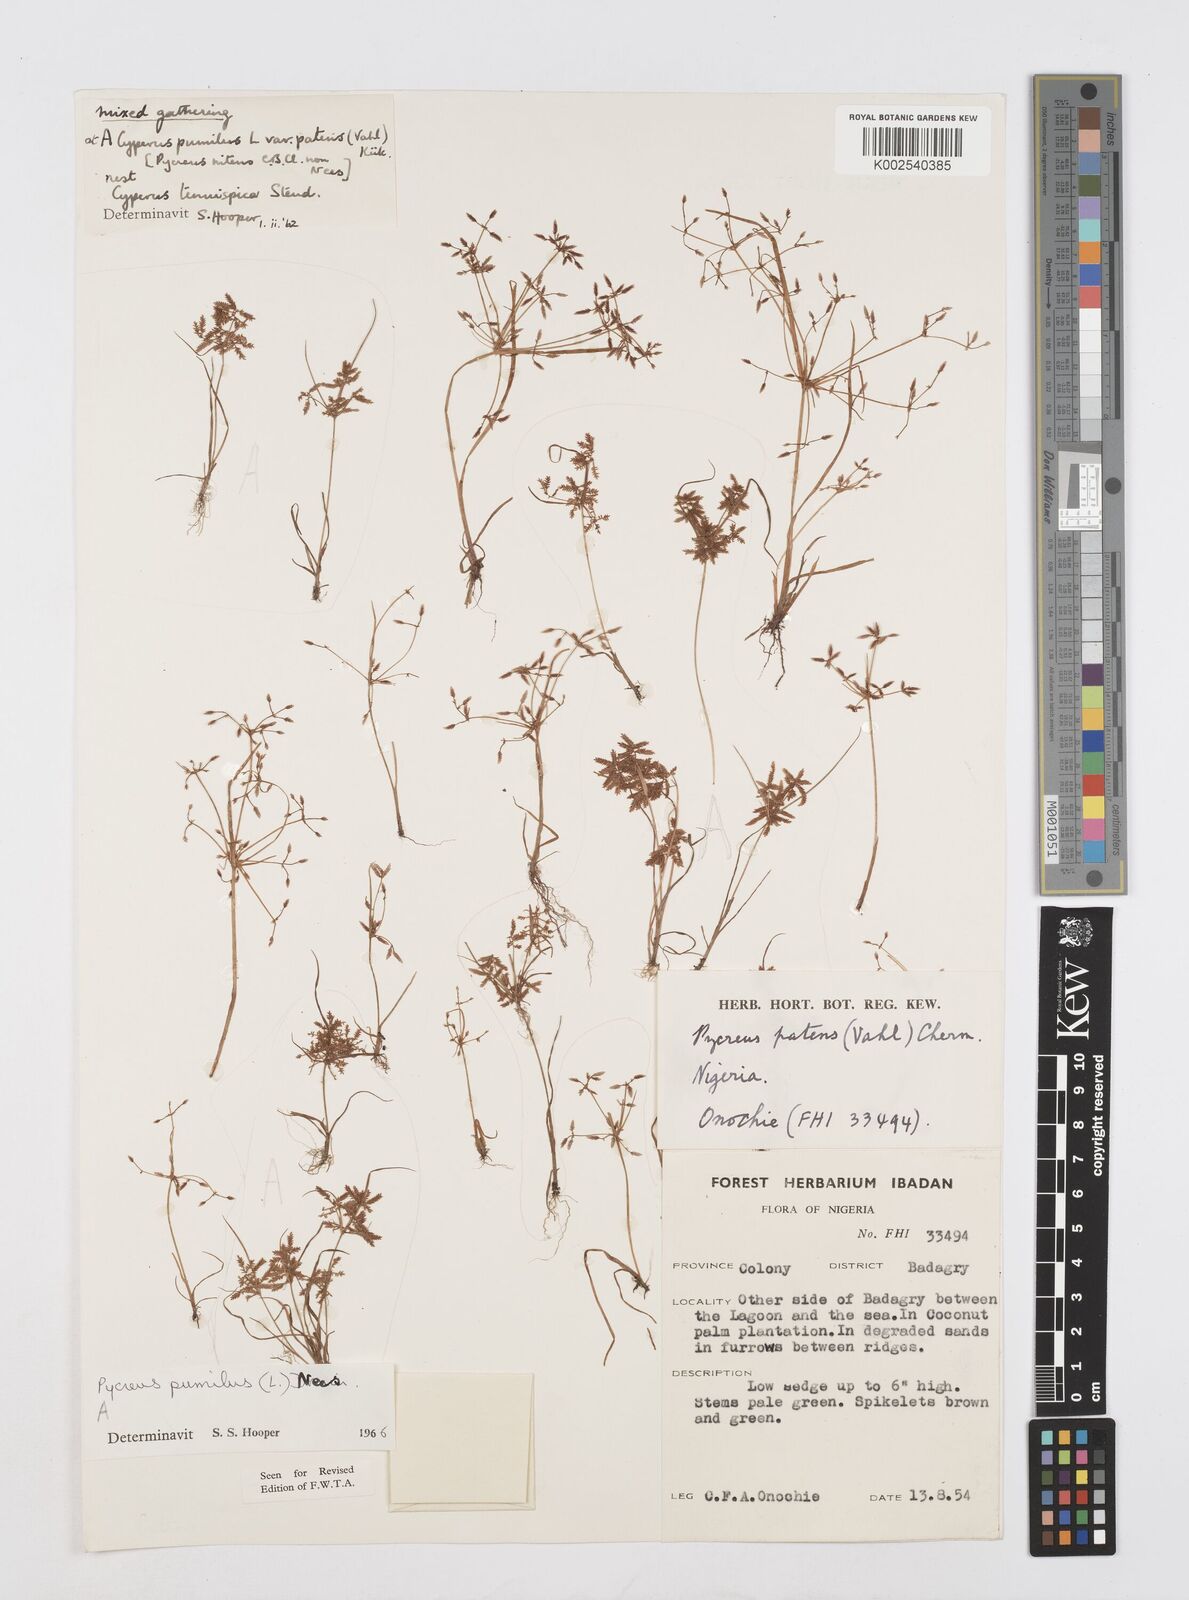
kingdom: Plantae
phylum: Tracheophyta
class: Liliopsida
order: Poales
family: Cyperaceae
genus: Cyperus
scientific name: Cyperus pumilus
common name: Low flatsedge
